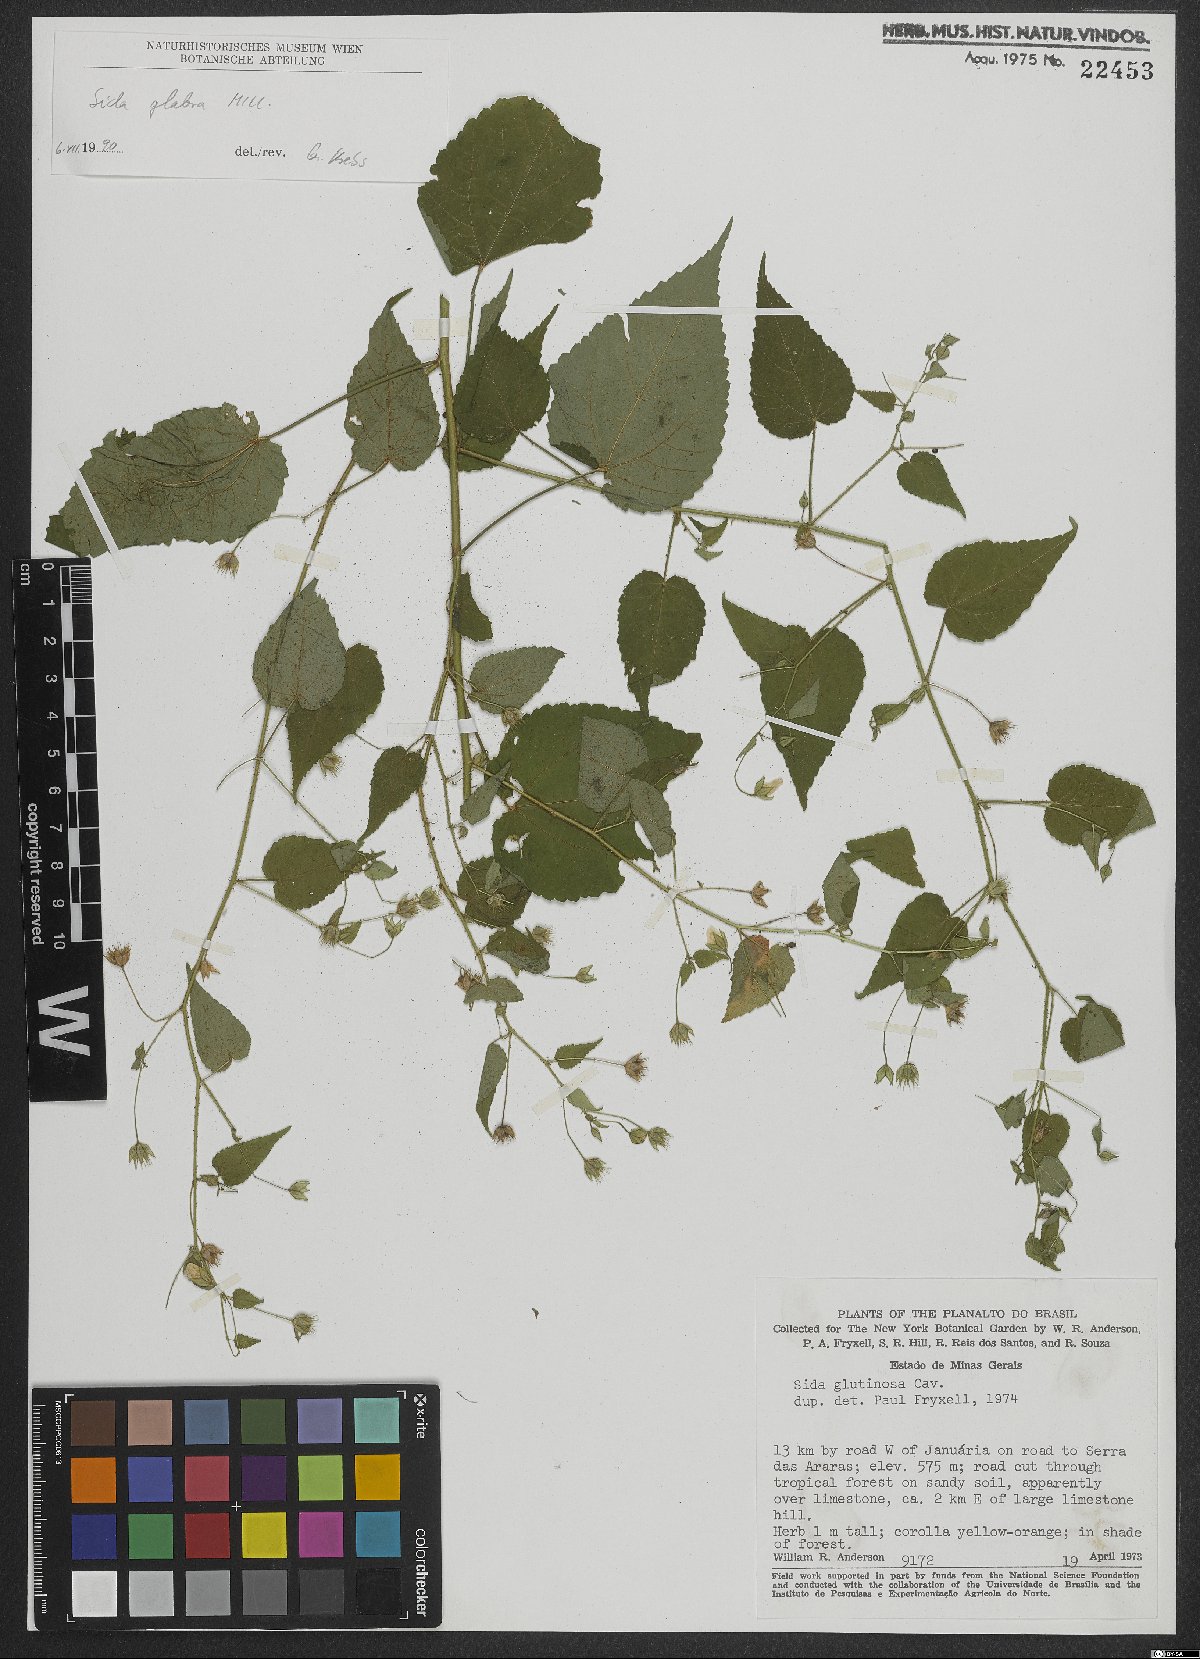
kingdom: Plantae
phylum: Tracheophyta
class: Magnoliopsida
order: Malvales
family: Malvaceae
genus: Sida
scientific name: Sida glabra
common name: Smooth fanpetals
